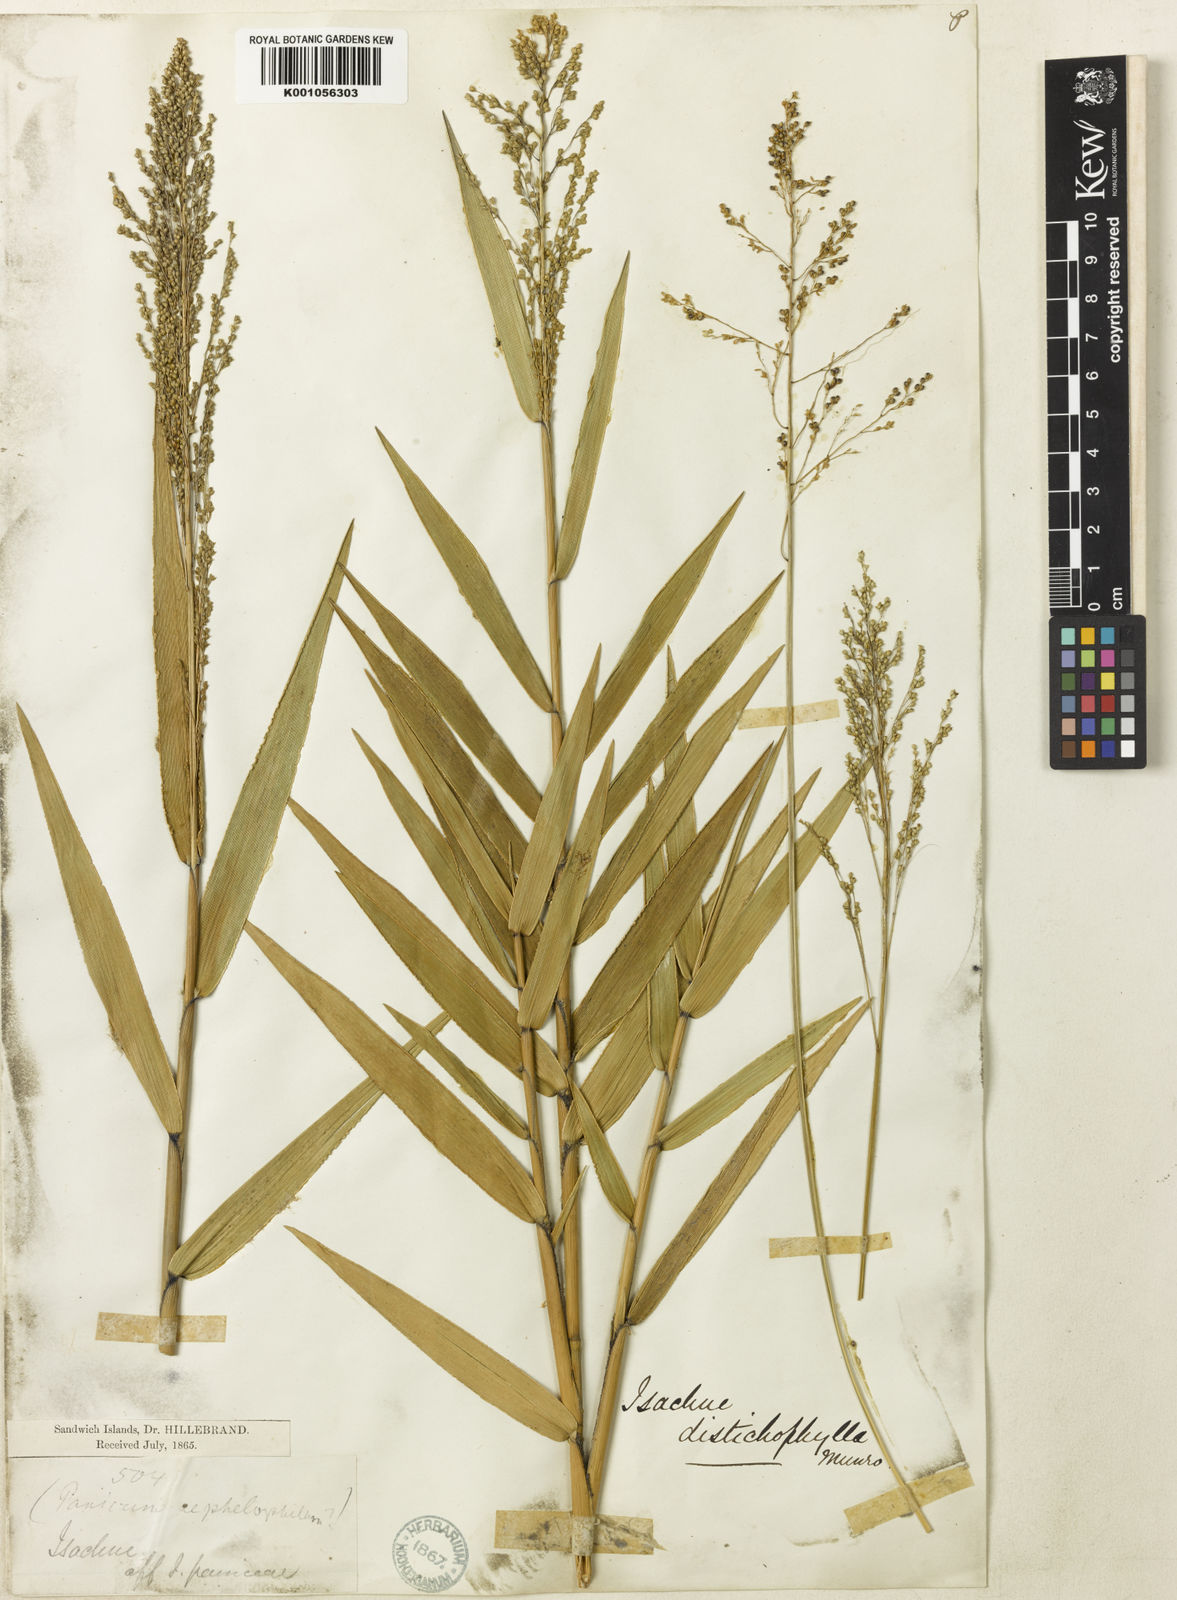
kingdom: Plantae
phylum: Tracheophyta
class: Liliopsida
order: Poales
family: Poaceae
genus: Isachne
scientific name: Isachne distichophylla
